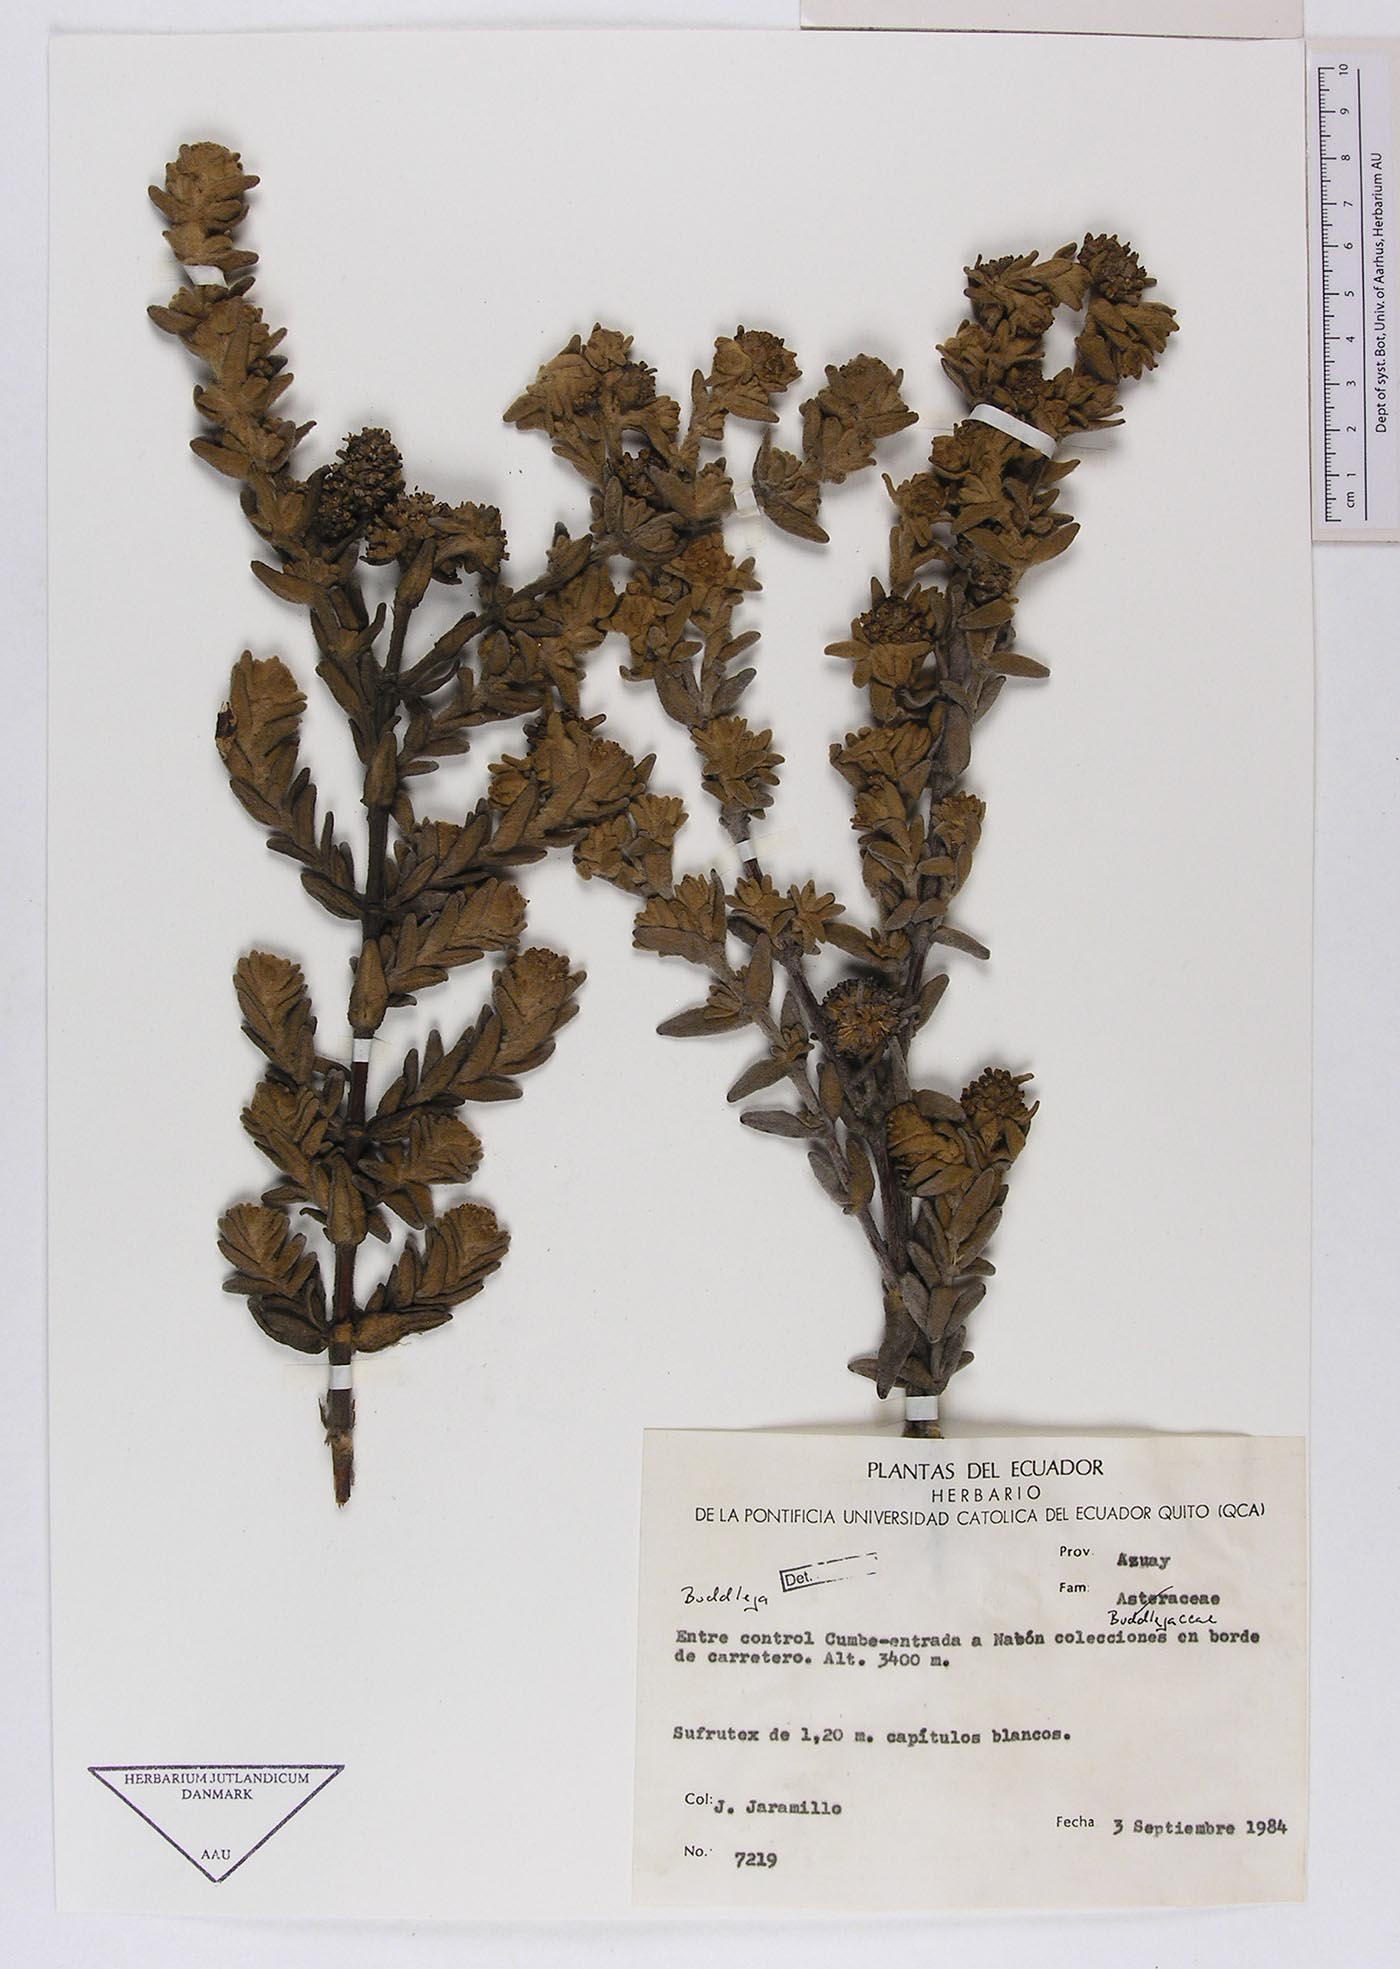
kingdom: Plantae
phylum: Tracheophyta
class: Magnoliopsida
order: Lamiales
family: Scrophulariaceae
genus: Buddleja
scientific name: Buddleja
